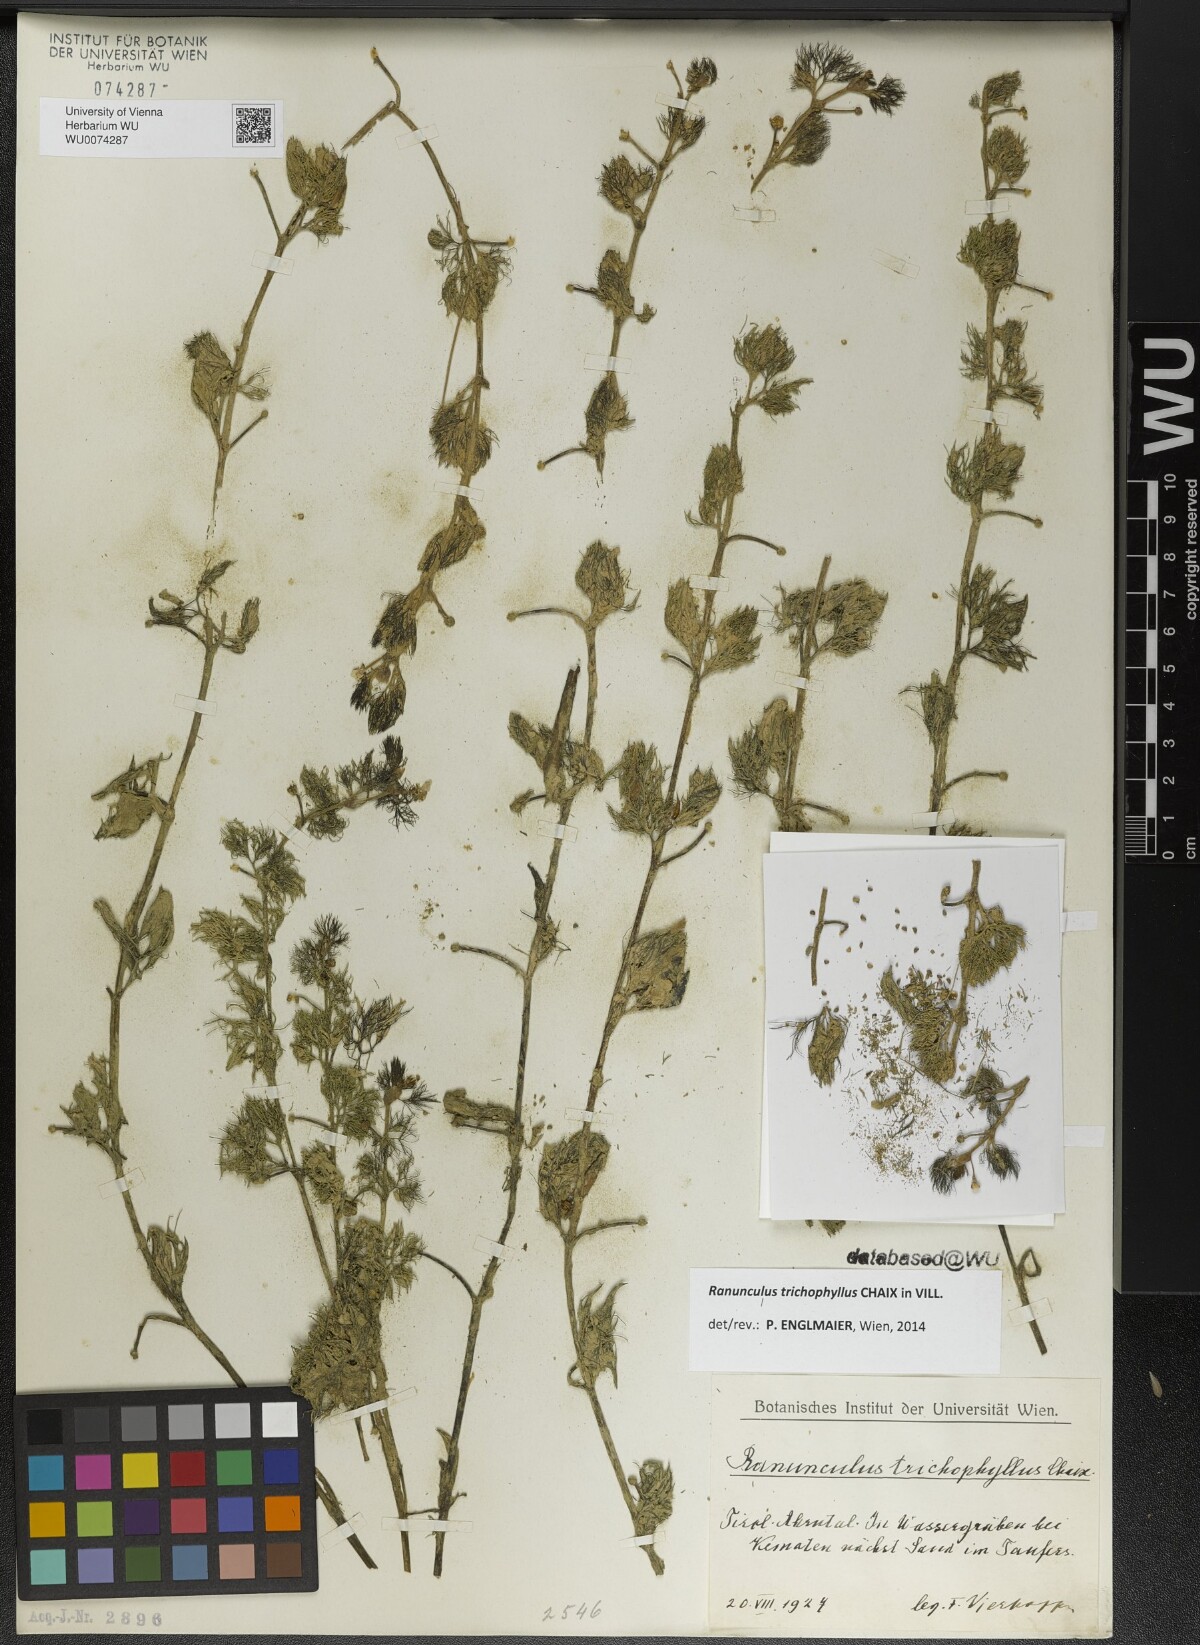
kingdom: Plantae
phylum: Tracheophyta
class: Magnoliopsida
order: Ranunculales
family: Ranunculaceae
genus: Ranunculus
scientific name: Ranunculus trichophyllus
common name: Thread-leaved water-crowfoot
